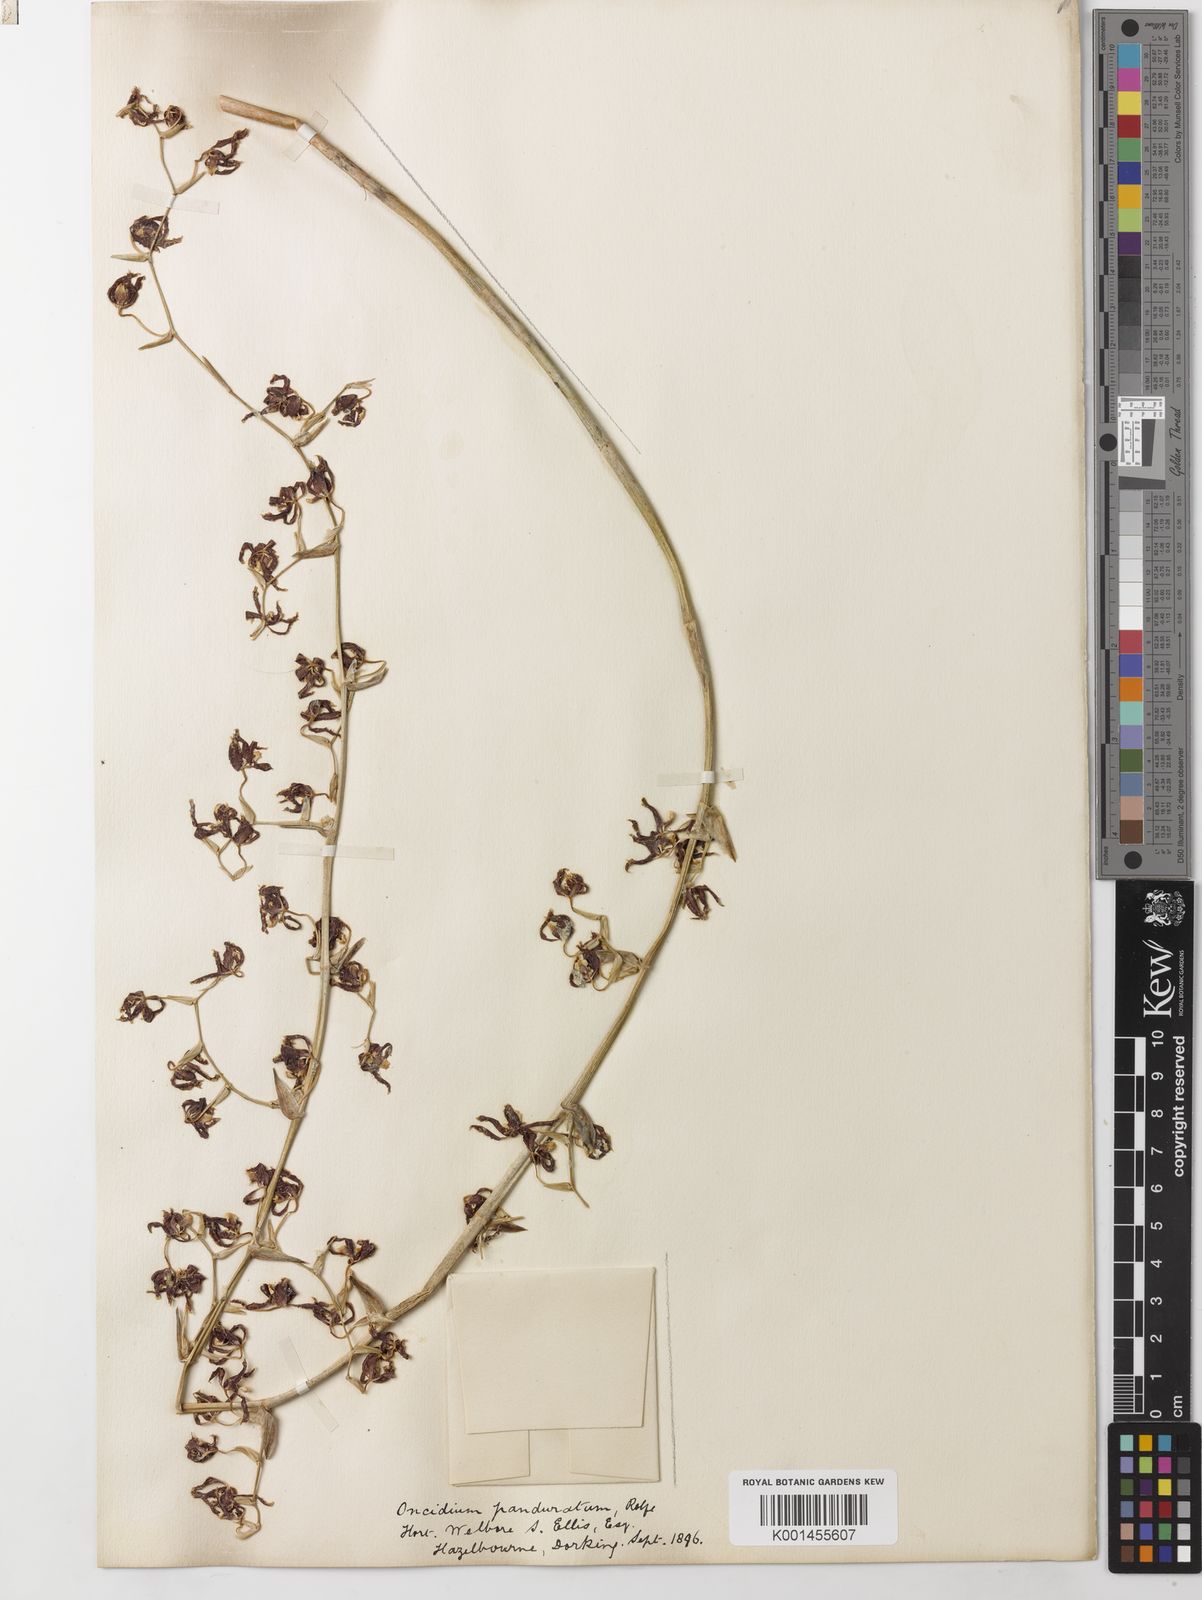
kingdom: Plantae
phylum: Tracheophyta
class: Liliopsida
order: Asparagales
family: Orchidaceae
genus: Oncidium
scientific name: Oncidium panduratum
